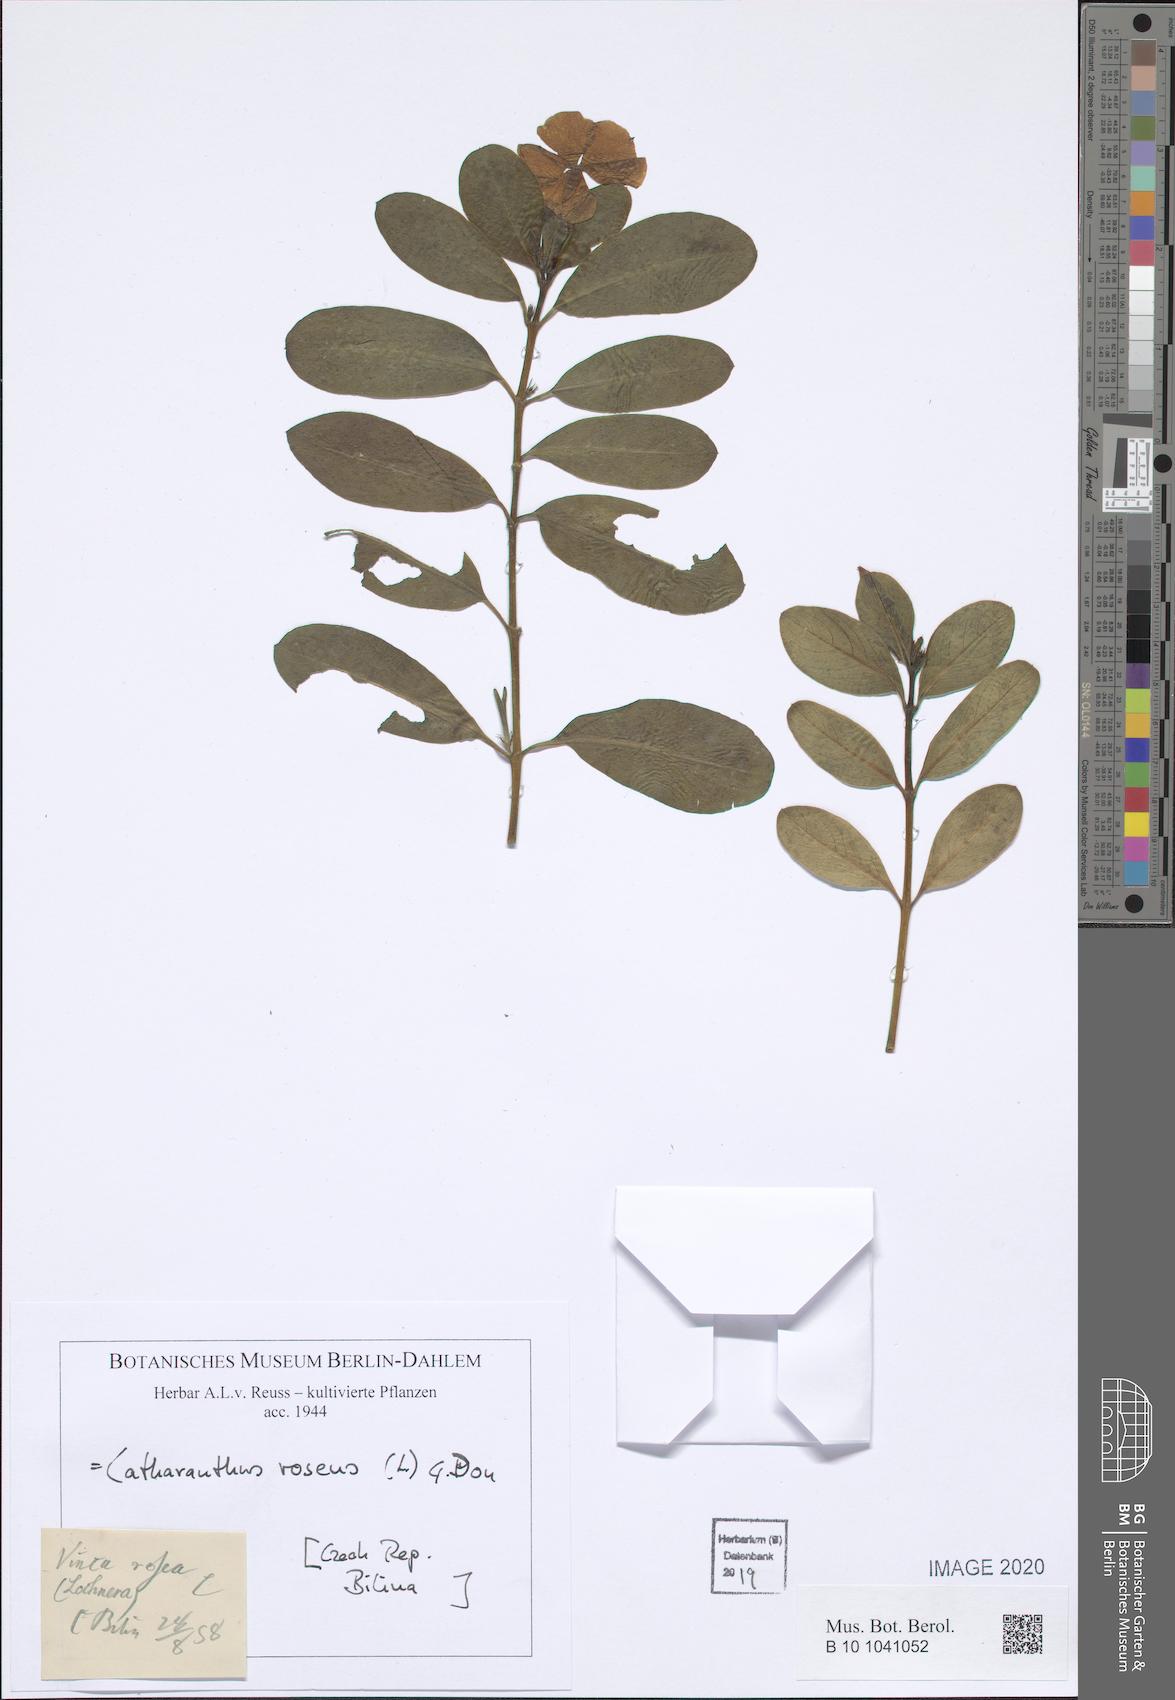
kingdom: Plantae
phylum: Tracheophyta
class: Magnoliopsida
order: Gentianales
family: Apocynaceae
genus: Catharanthus
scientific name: Catharanthus roseus
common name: Madagascar periwinkle
